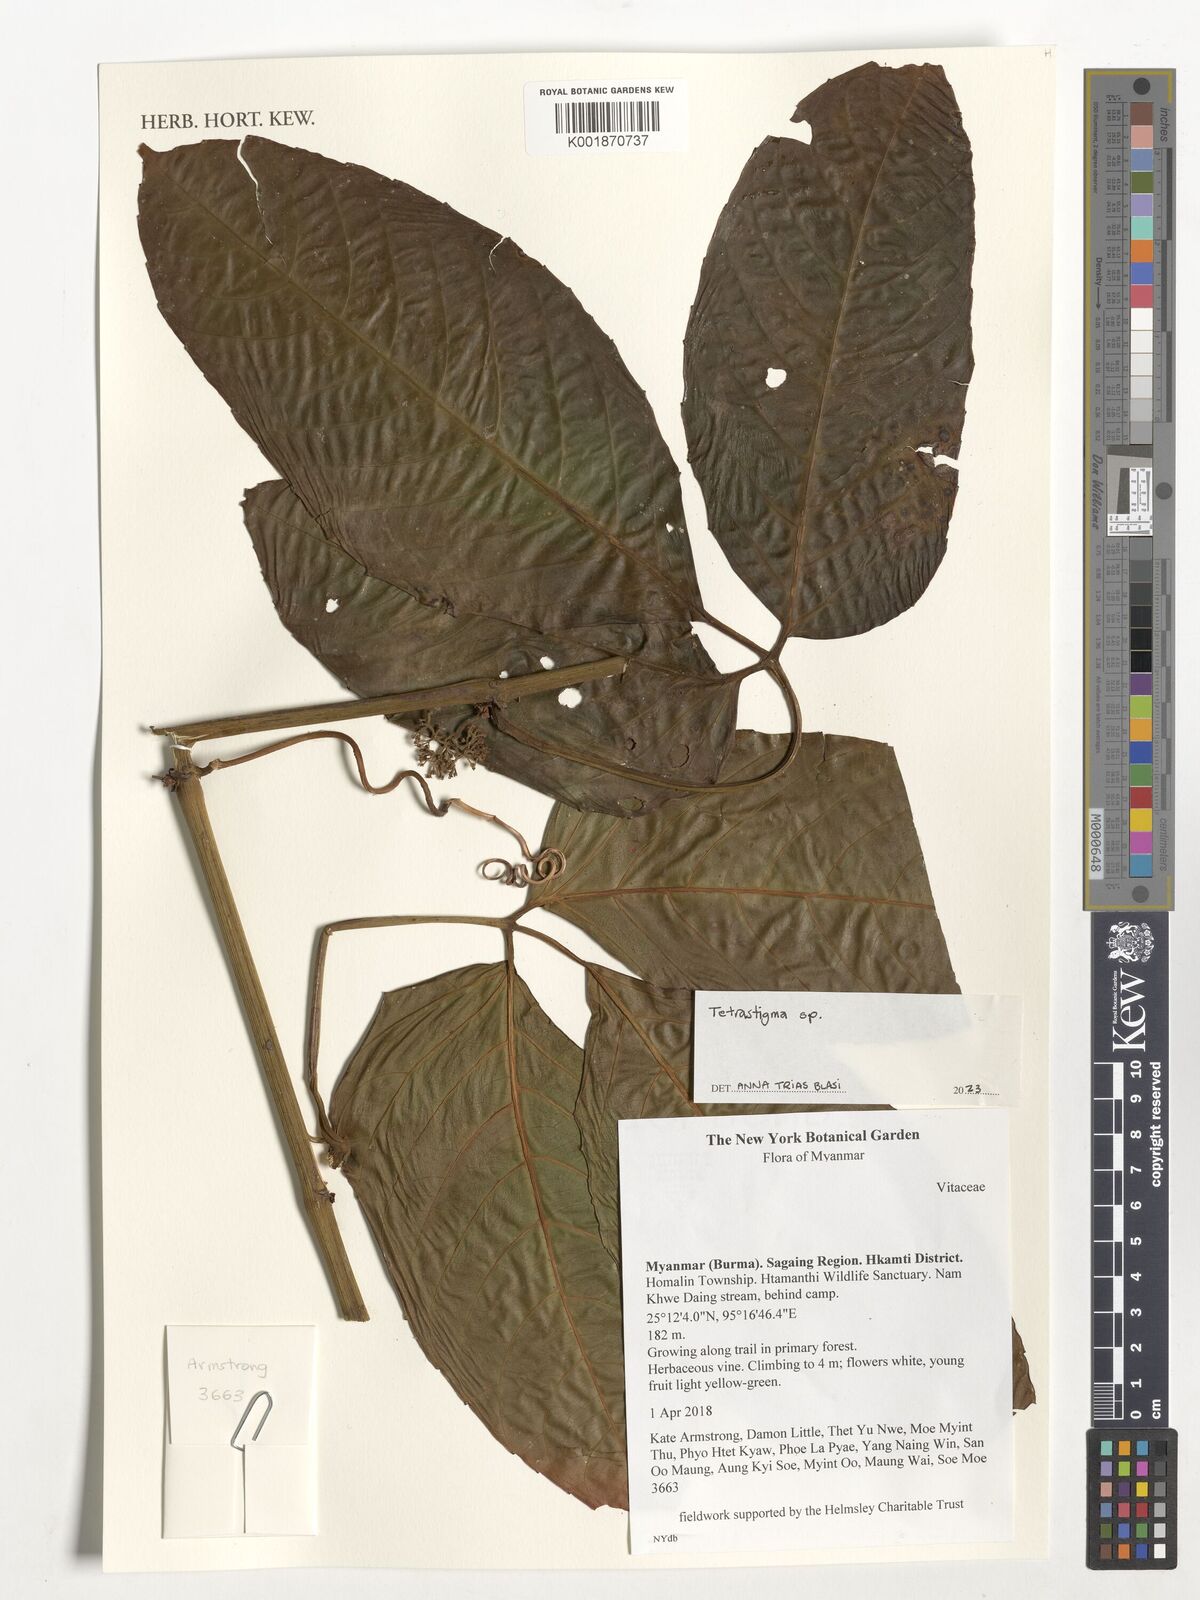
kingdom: Plantae
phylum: Tracheophyta
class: Magnoliopsida
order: Vitales
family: Vitaceae
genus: Tetrastigma
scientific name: Tetrastigma
